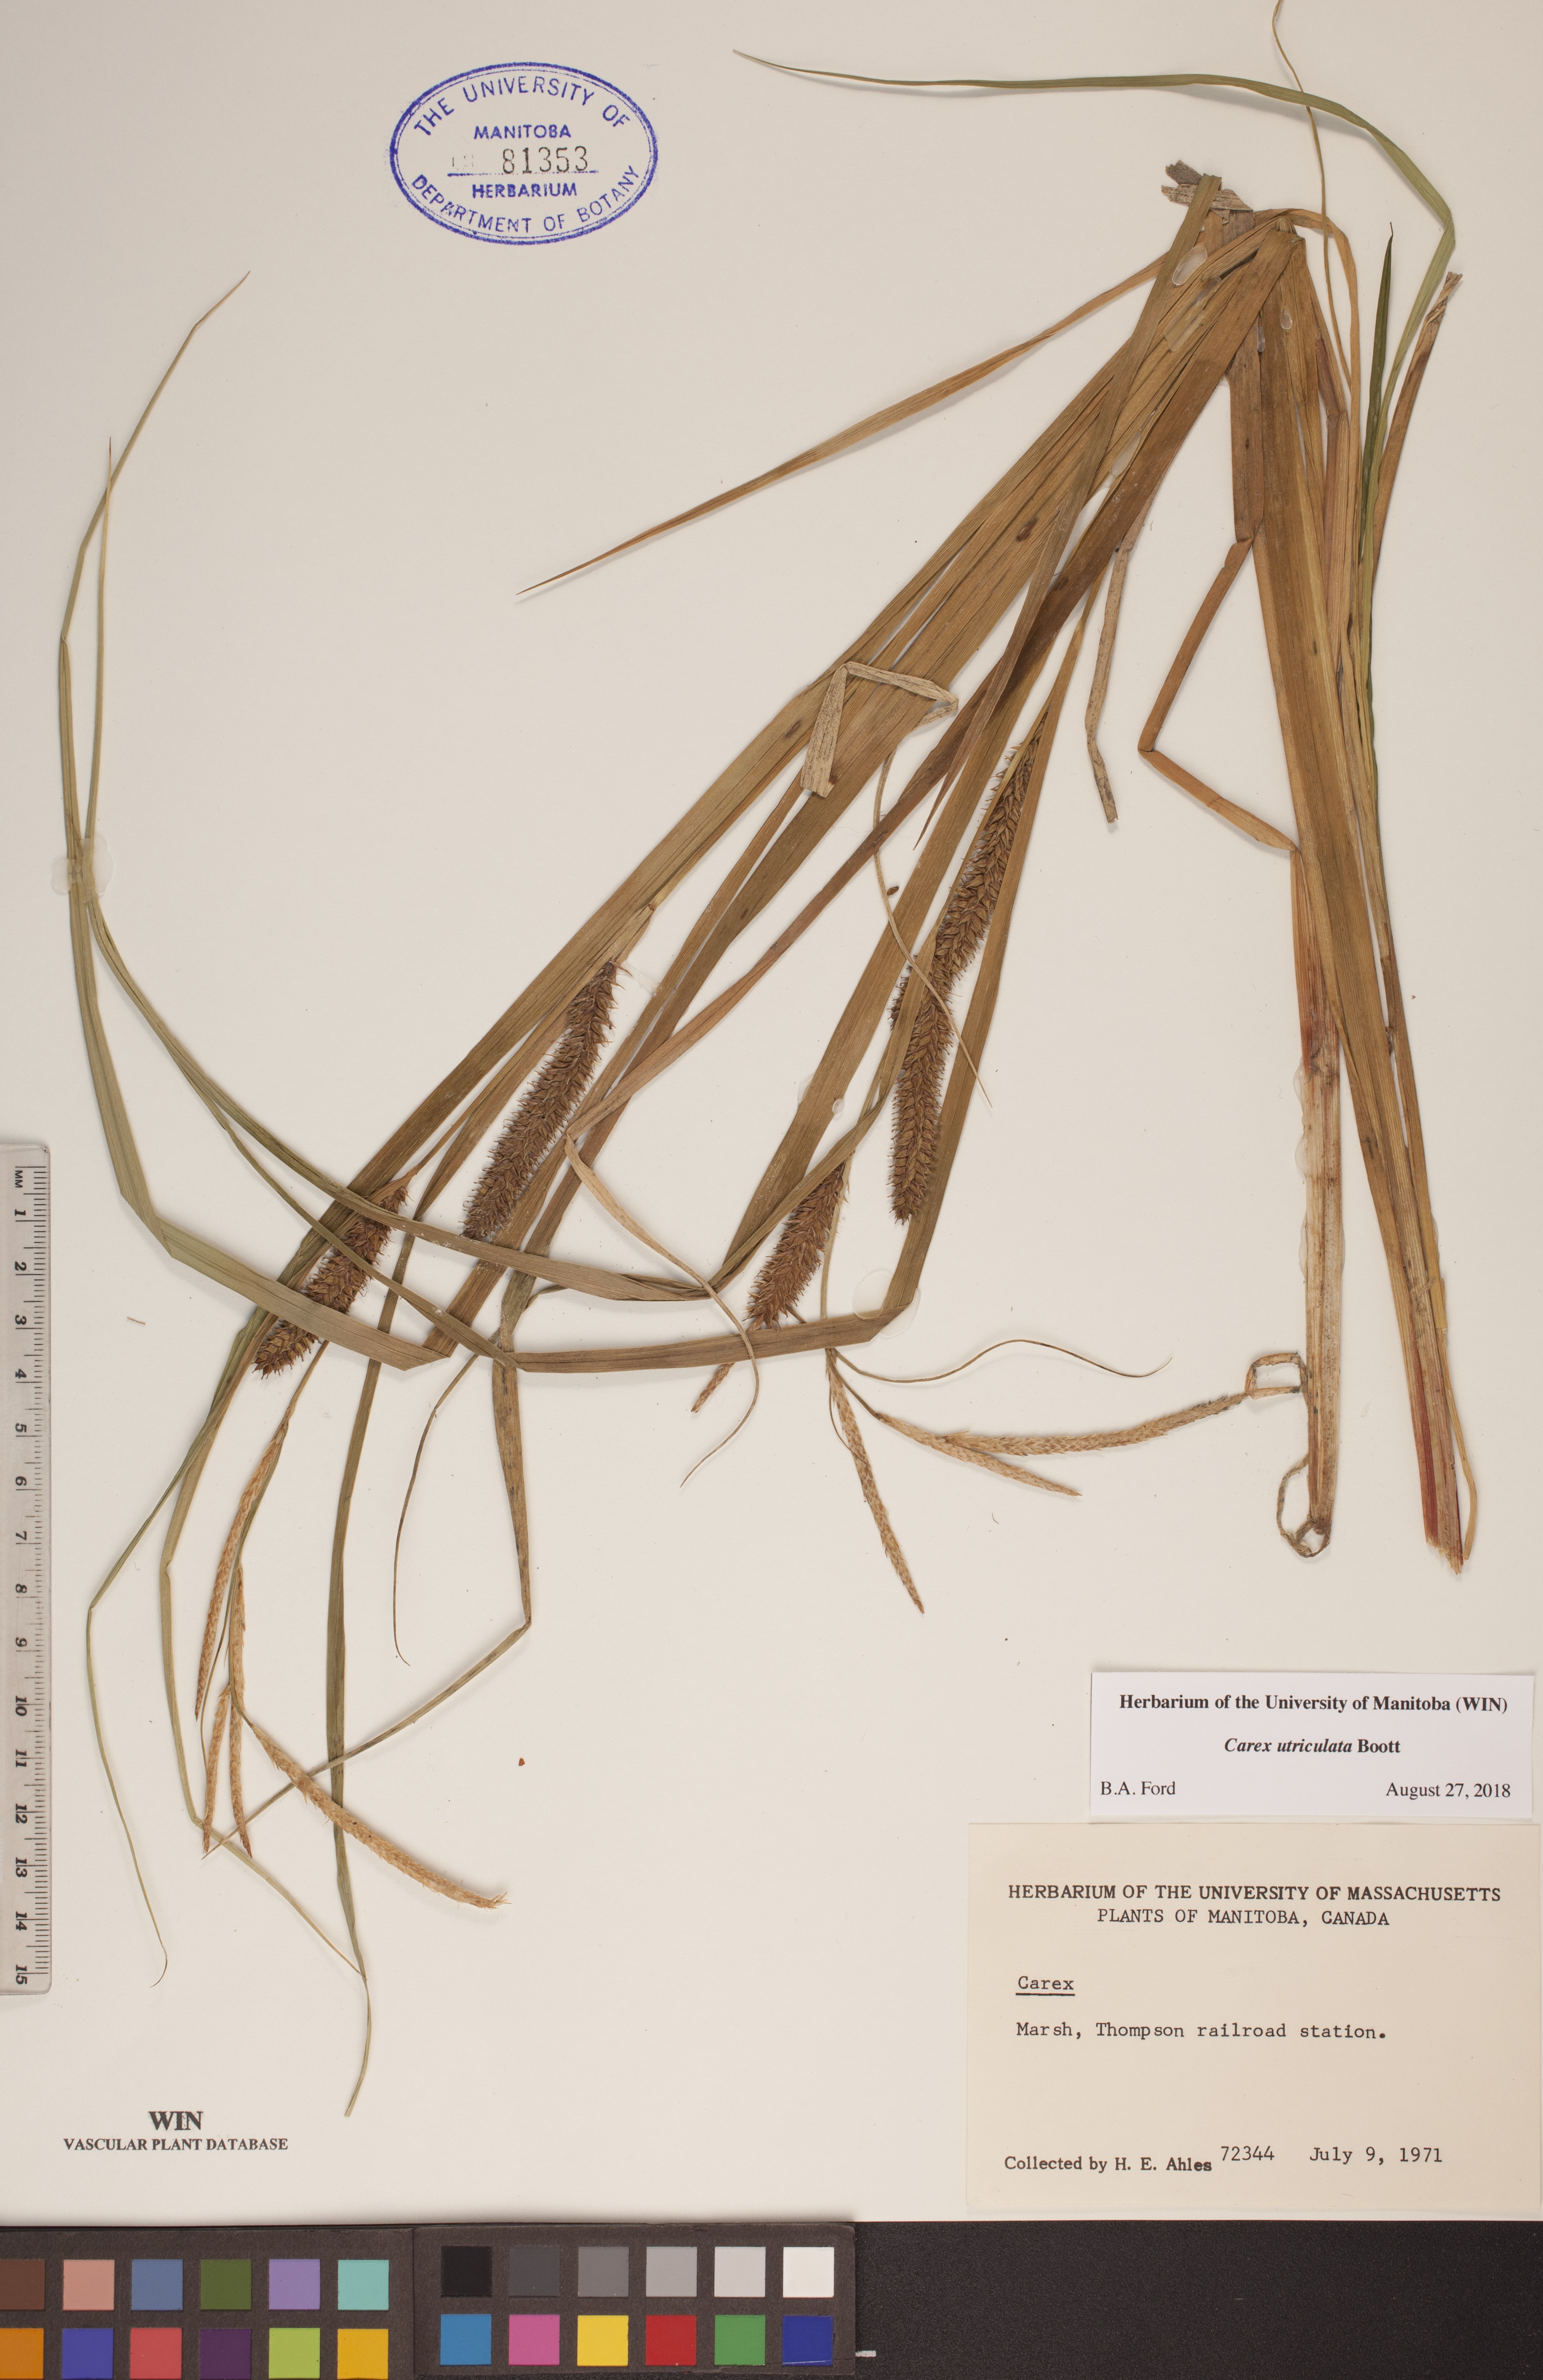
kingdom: Plantae
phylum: Tracheophyta
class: Liliopsida
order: Poales
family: Cyperaceae
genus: Carex
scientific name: Carex utriculata
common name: Beaked sedge
